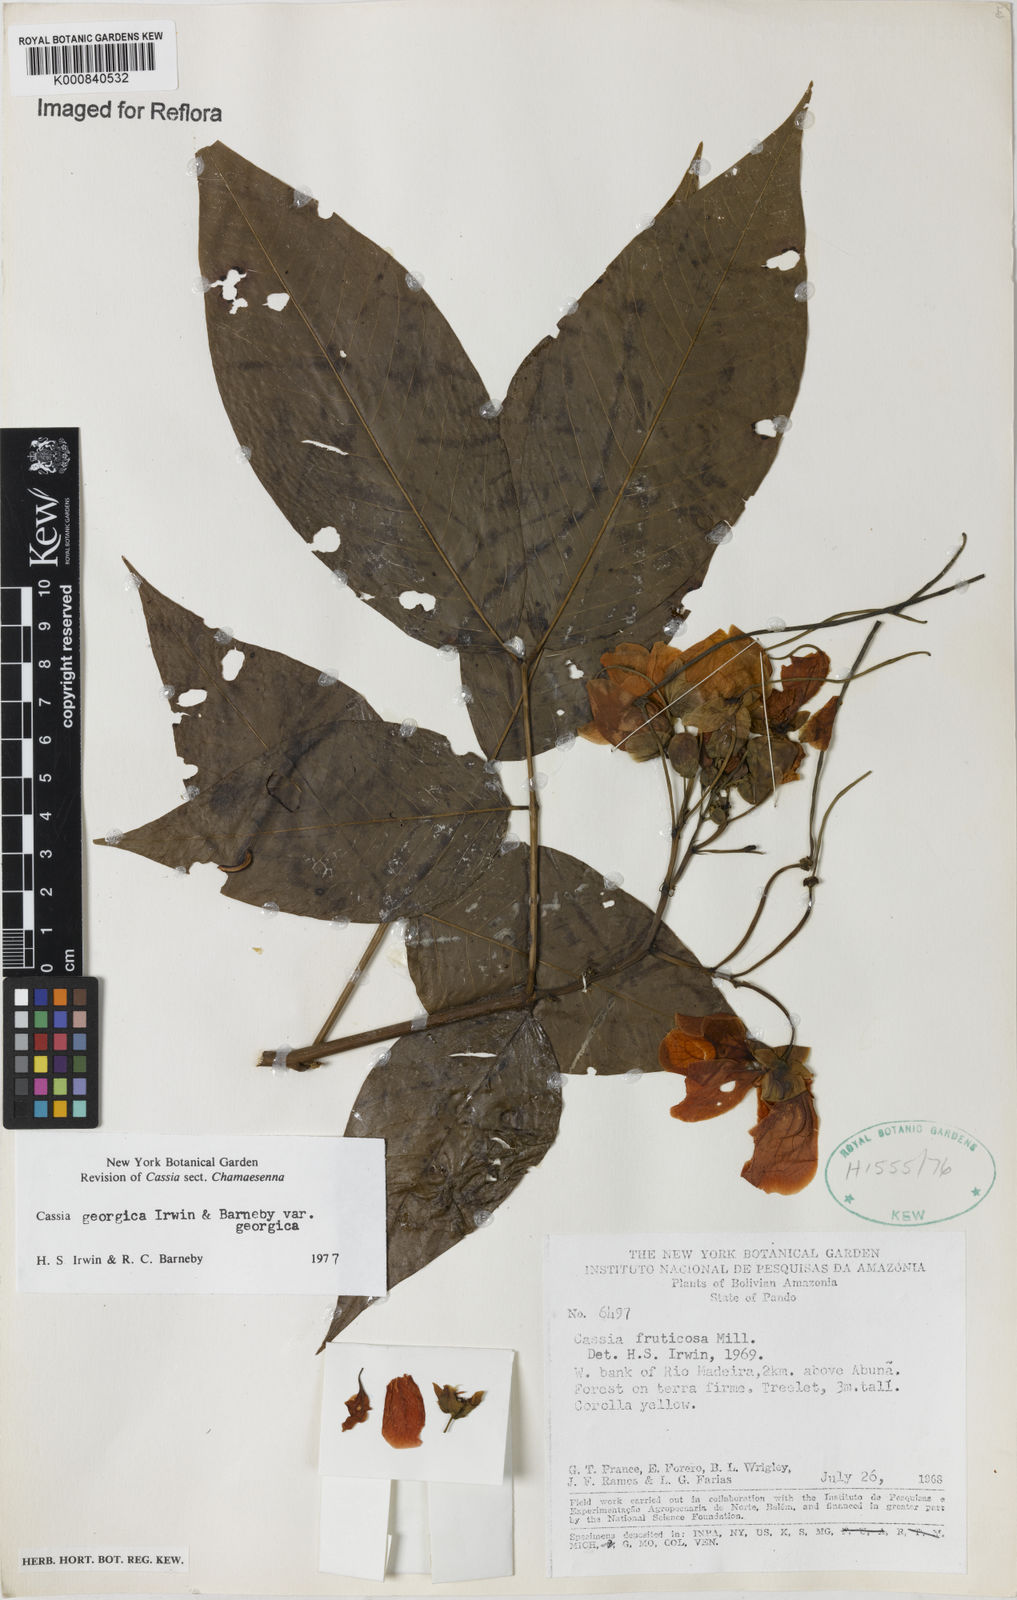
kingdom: Plantae
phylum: Tracheophyta
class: Magnoliopsida
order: Fabales
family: Fabaceae
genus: Senna
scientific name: Senna georgica
